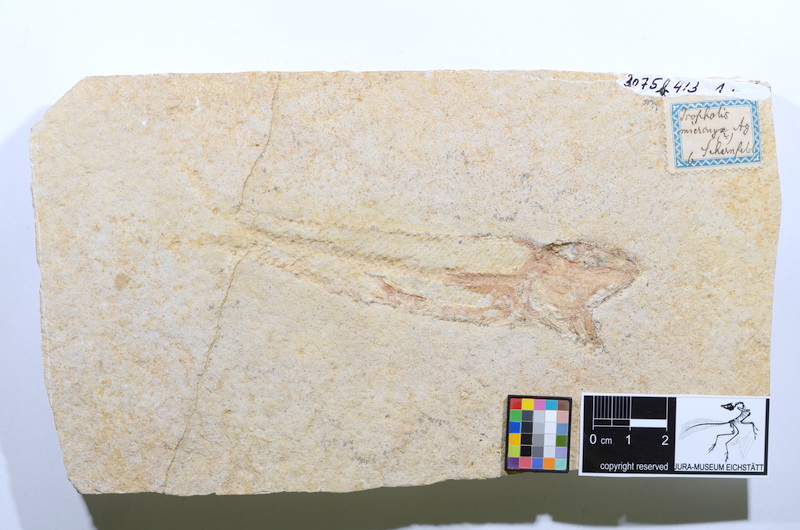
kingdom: Animalia
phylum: Chordata
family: Ophiopsiellidae
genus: Ophiopsiella
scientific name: Ophiopsiella attenuata
